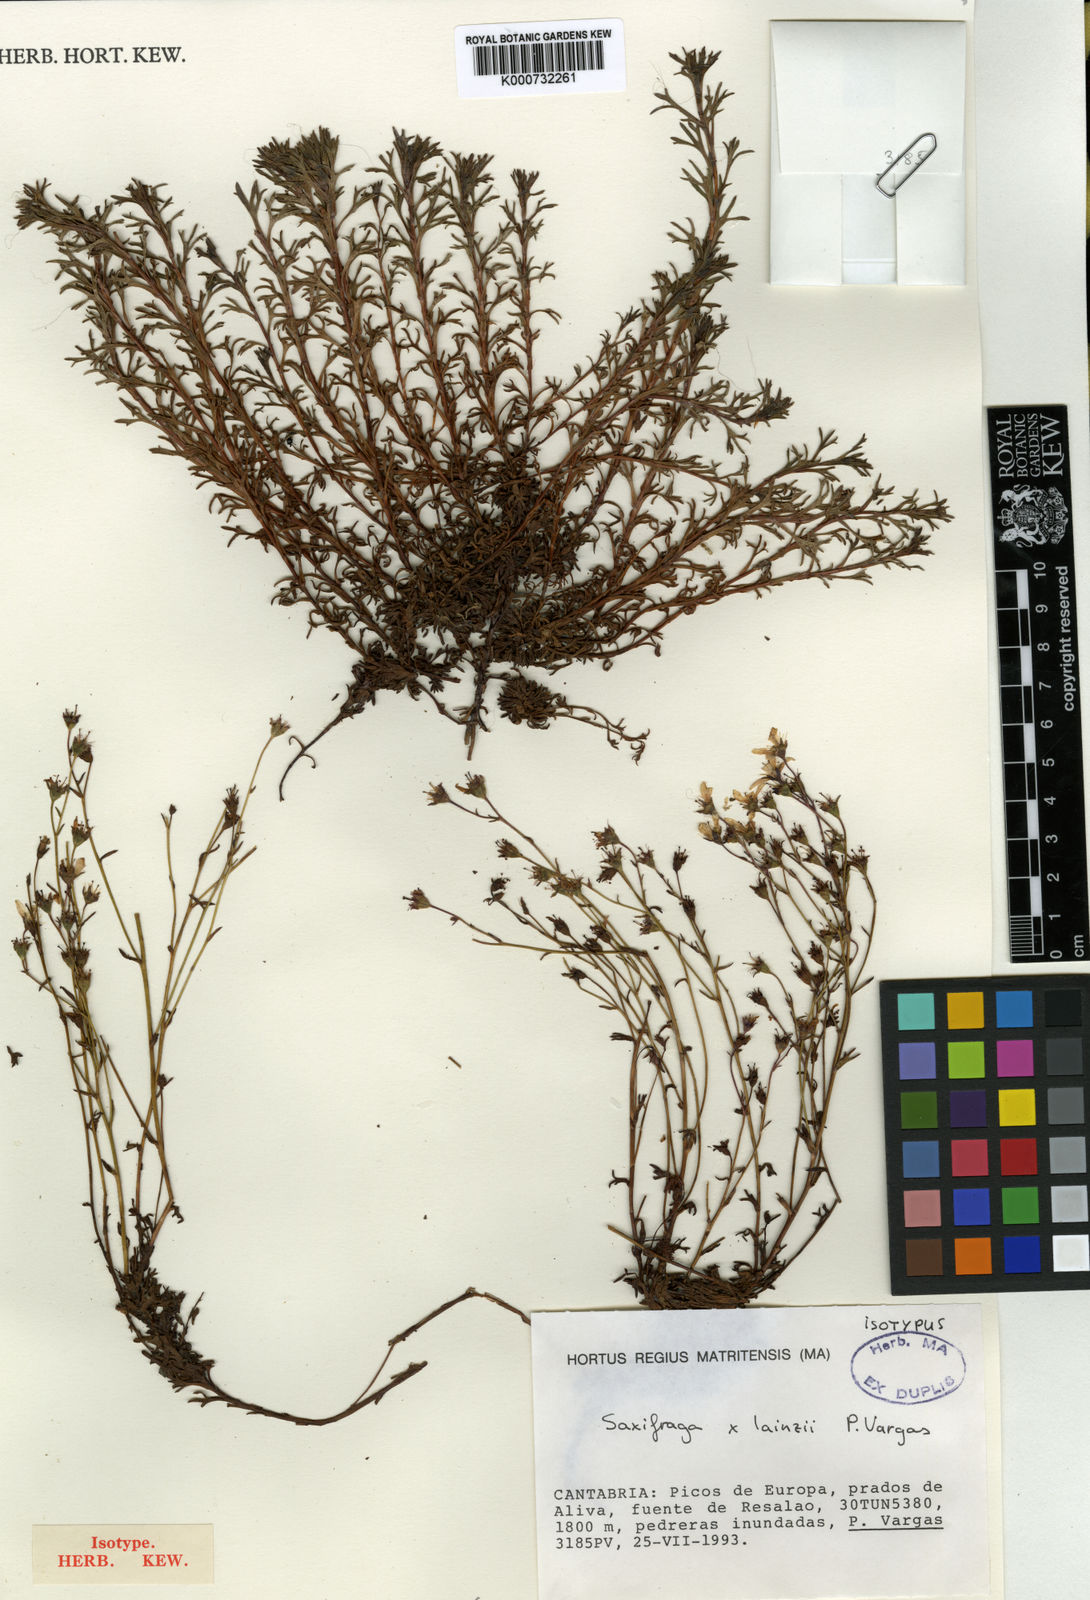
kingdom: Plantae
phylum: Tracheophyta
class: Magnoliopsida
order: Saxifragales
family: Saxifragaceae
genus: Saxifraga
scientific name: Saxifraga lainzii
